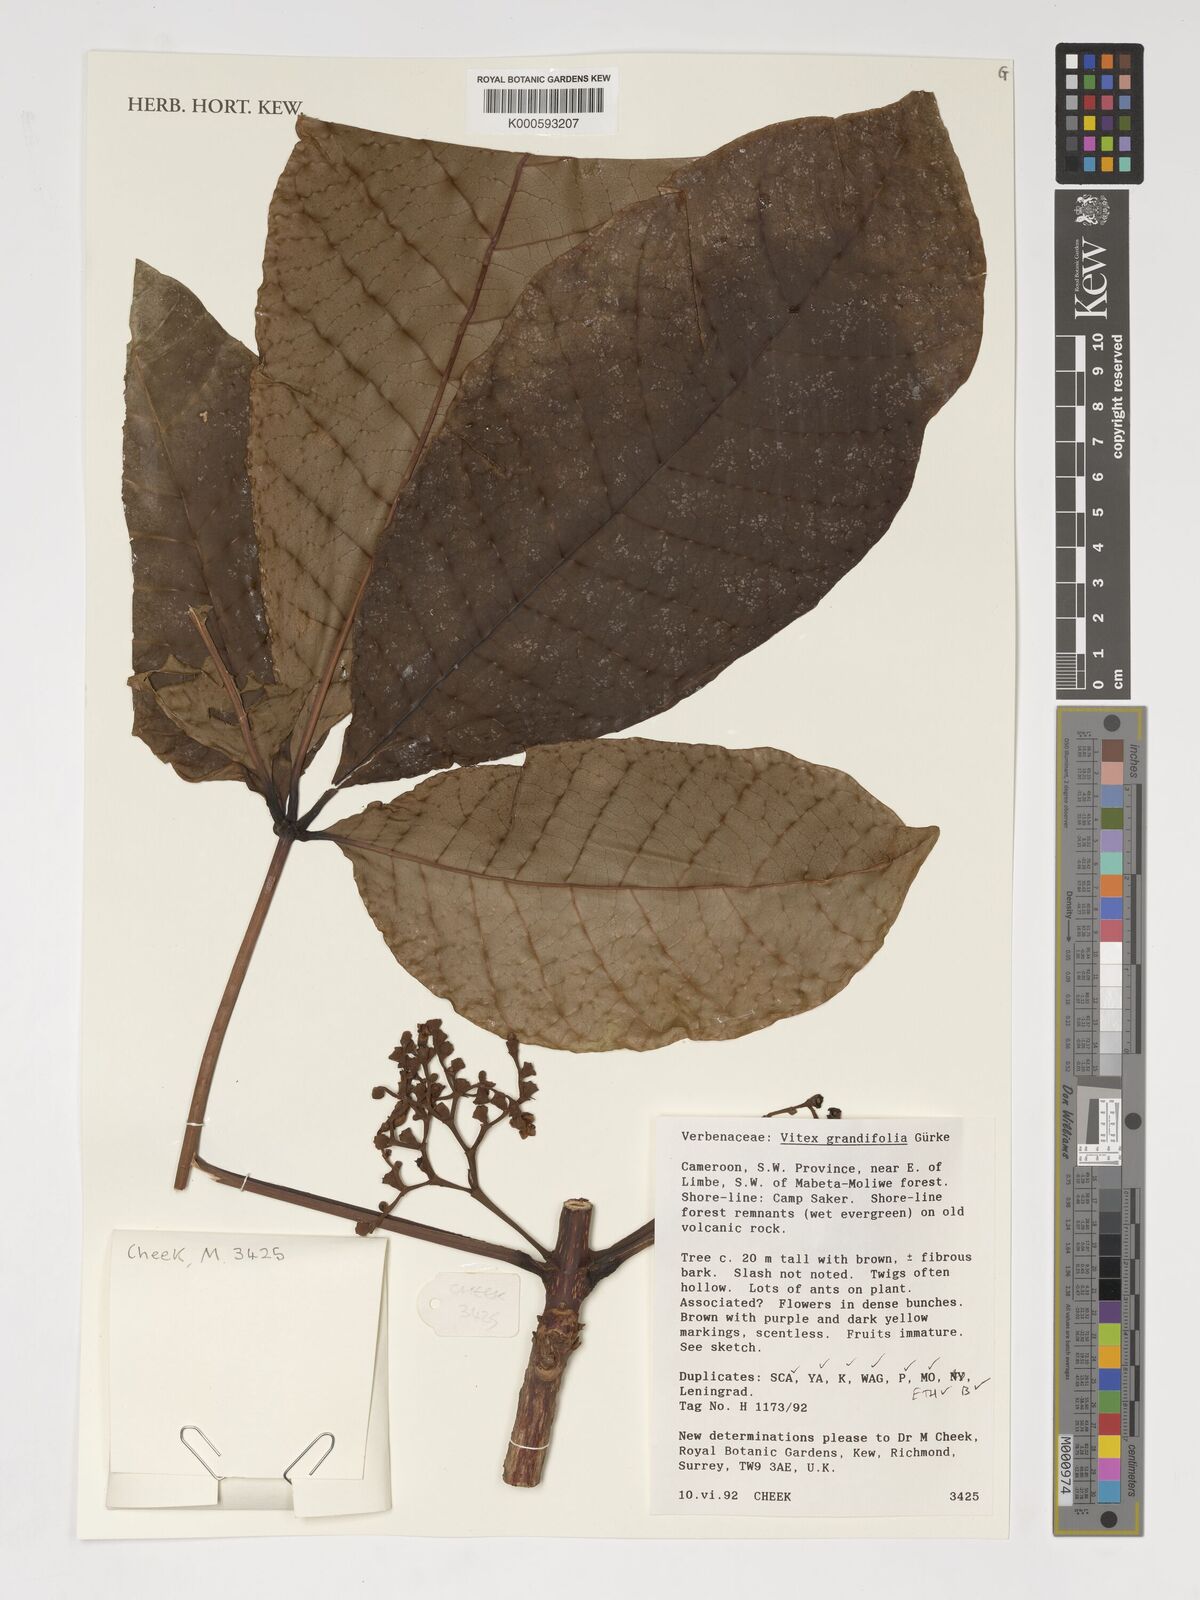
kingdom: Plantae
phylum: Tracheophyta
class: Magnoliopsida
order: Lamiales
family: Lamiaceae
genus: Vitex
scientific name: Vitex grandifolia
